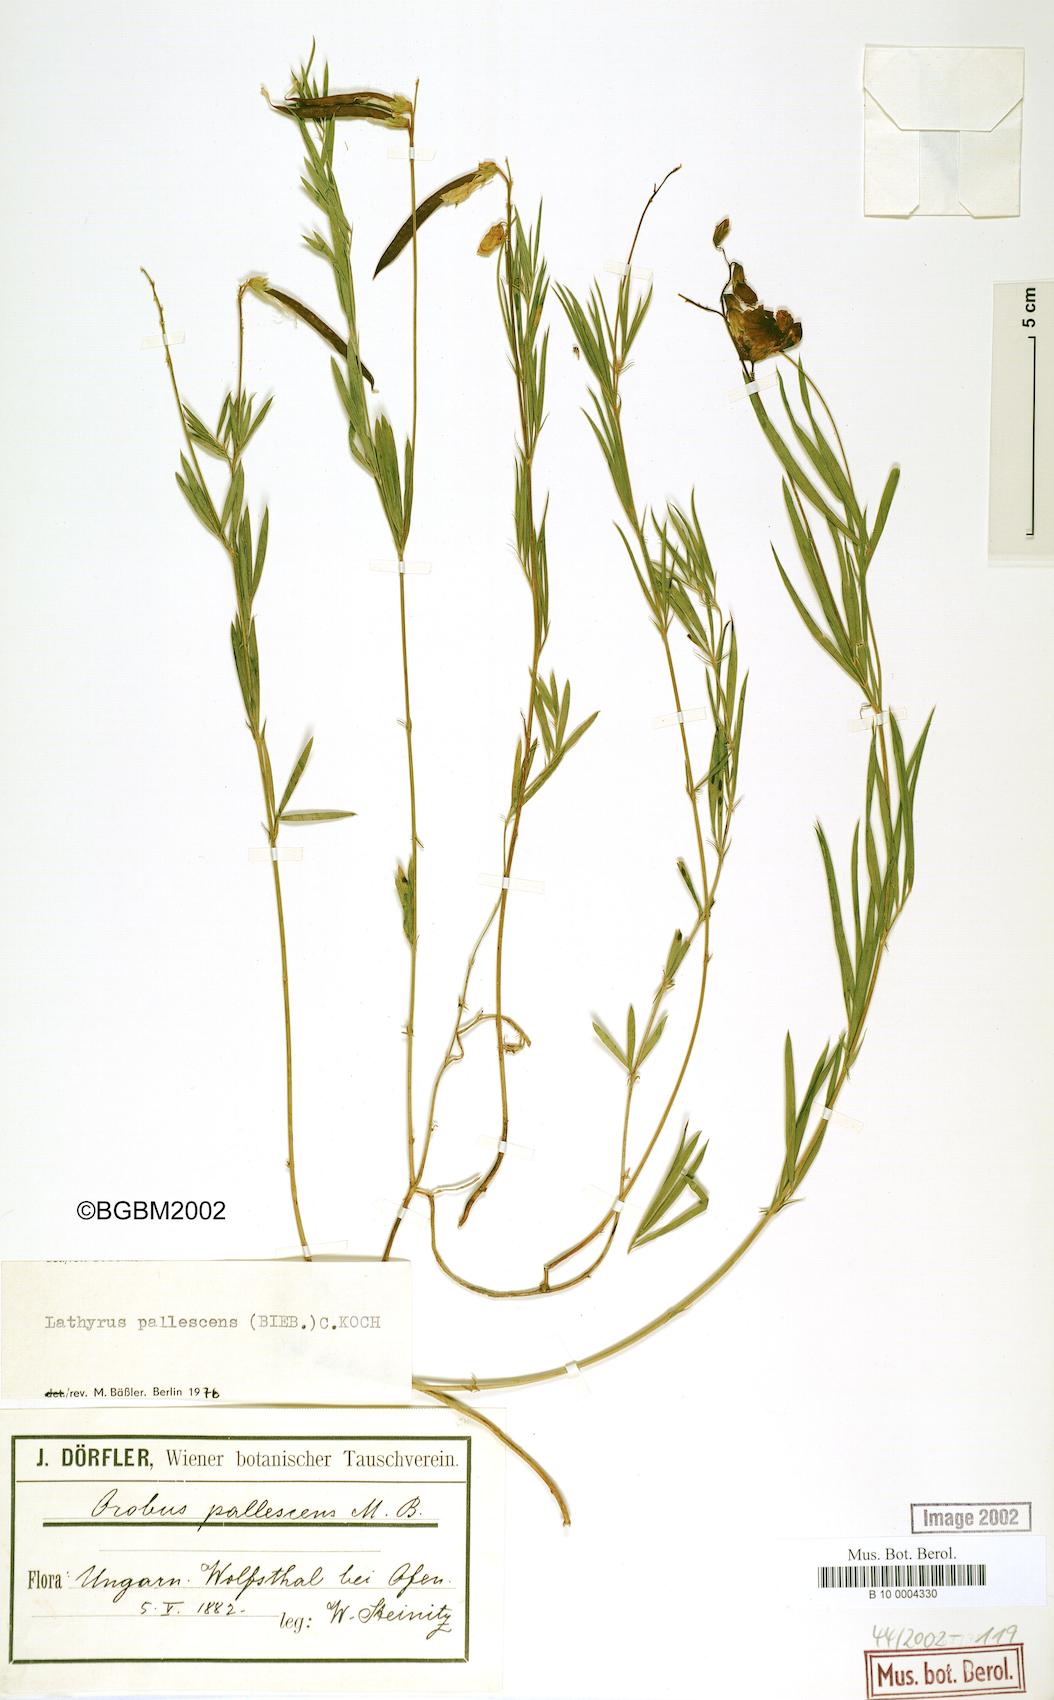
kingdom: Plantae
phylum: Tracheophyta
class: Magnoliopsida
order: Fabales
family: Fabaceae
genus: Lathyrus
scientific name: Lathyrus pallescens
